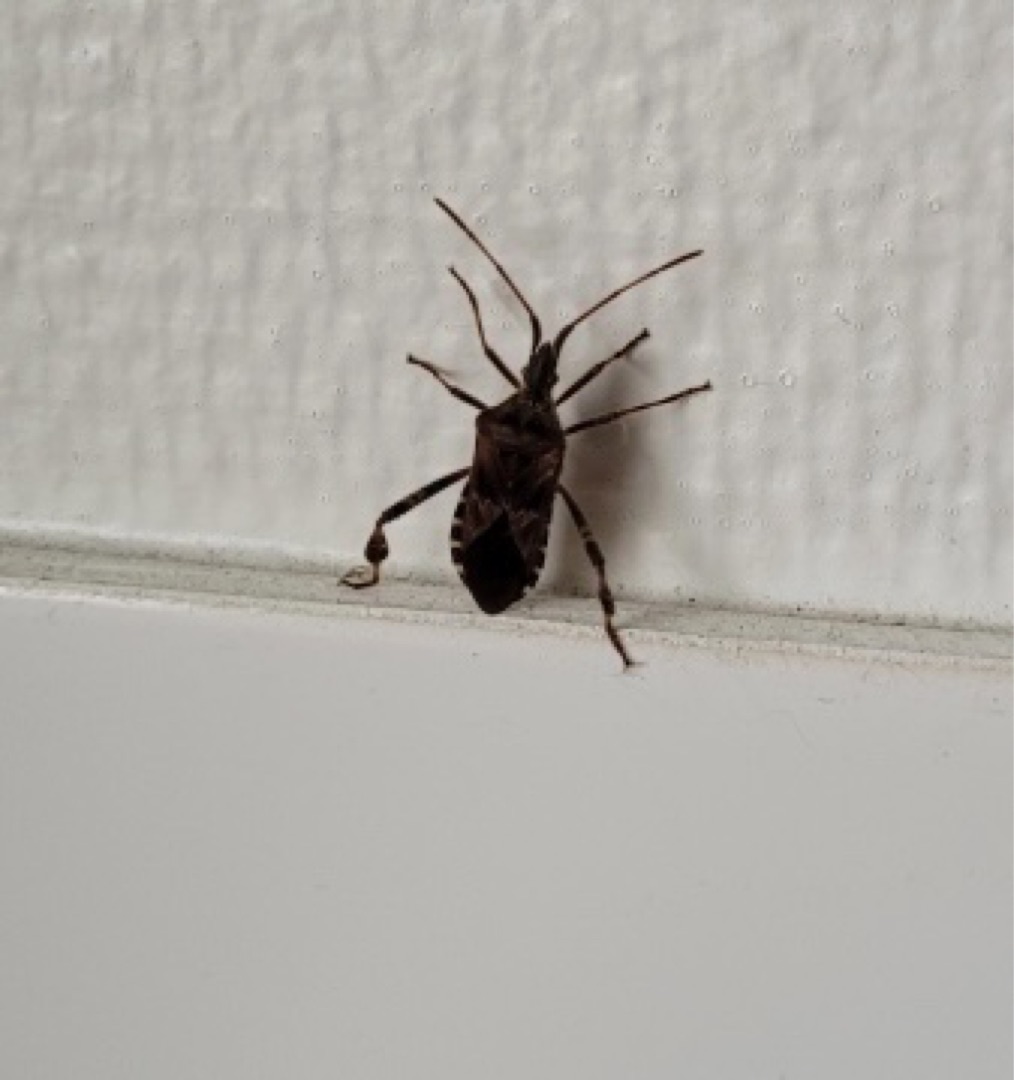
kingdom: Animalia
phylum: Arthropoda
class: Insecta
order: Hemiptera
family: Coreidae
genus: Leptoglossus
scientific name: Leptoglossus occidentalis
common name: Amerikansk fyrretæge
